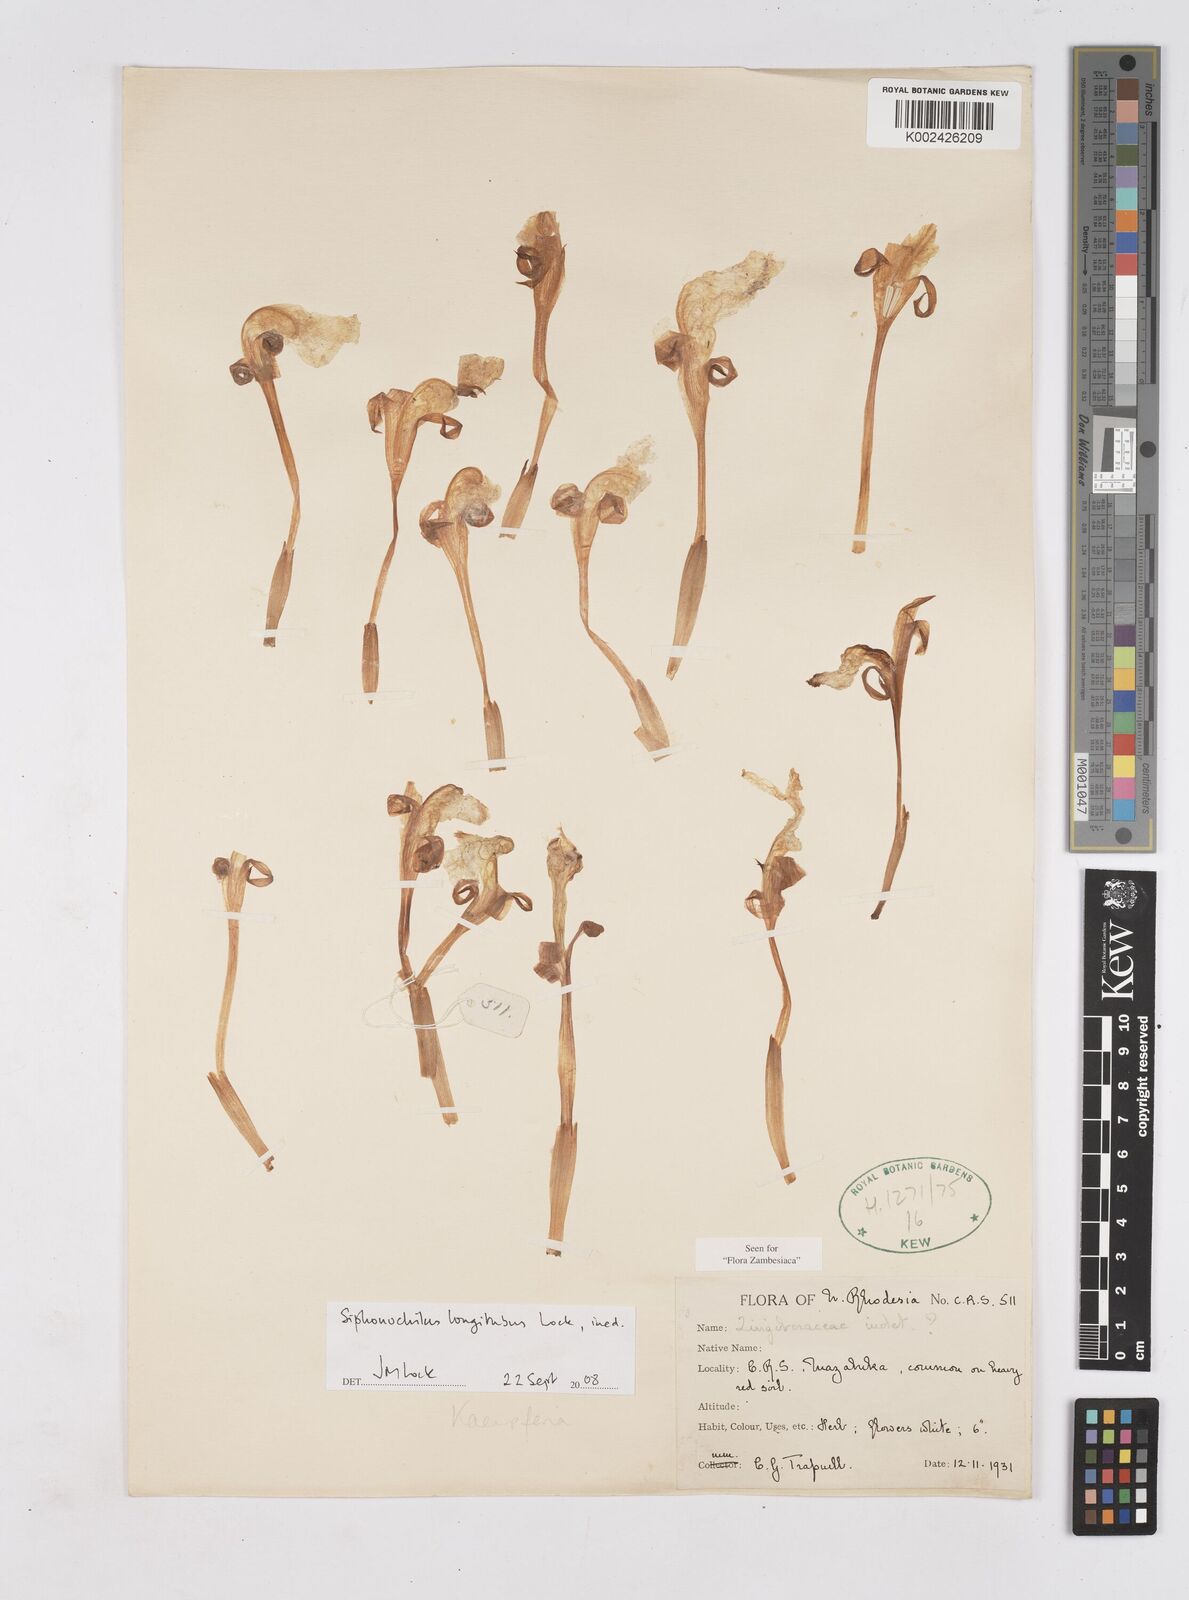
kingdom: Plantae
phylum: Tracheophyta
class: Liliopsida
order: Zingiberales
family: Zingiberaceae
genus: Siphonochilus
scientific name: Siphonochilus longitubus
